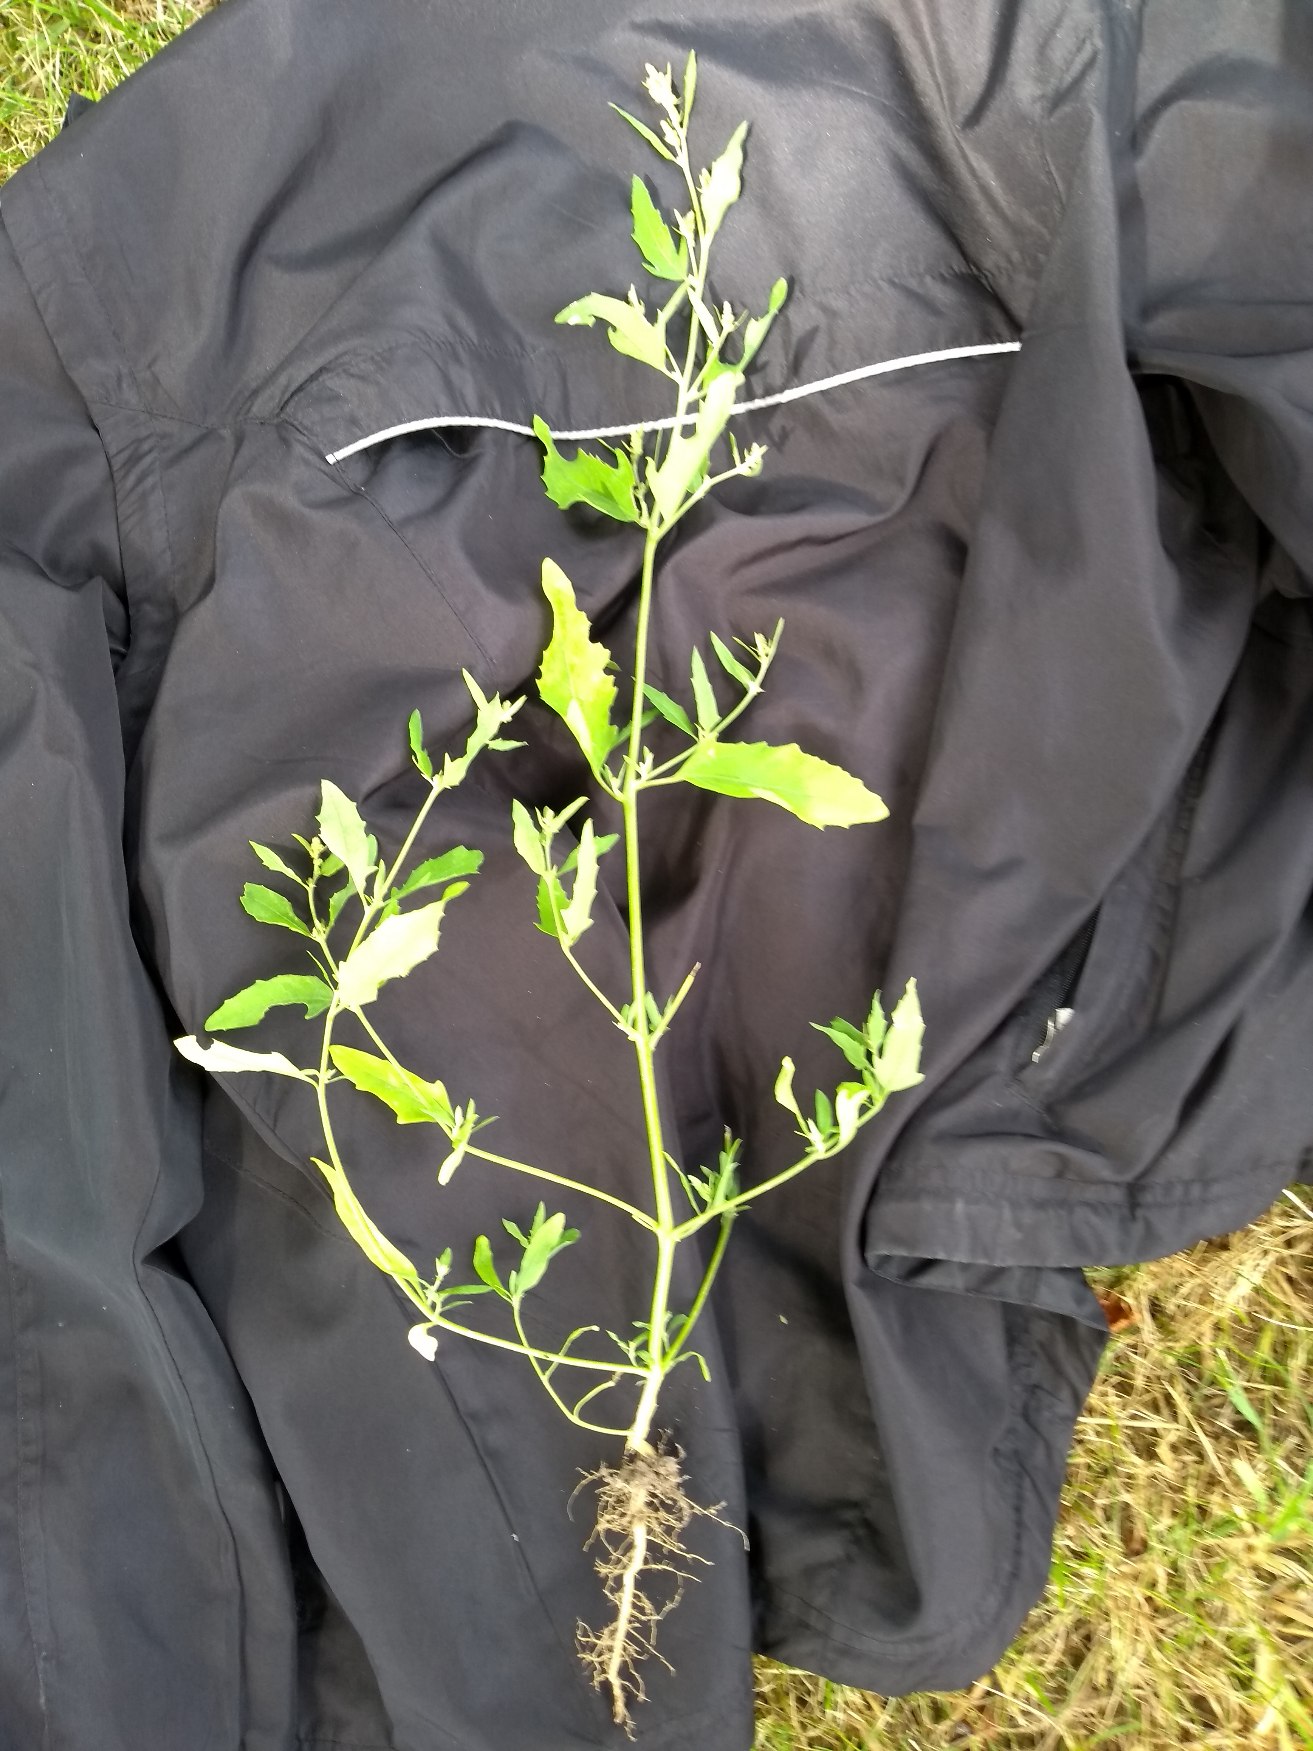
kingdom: Plantae
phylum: Tracheophyta
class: Magnoliopsida
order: Caryophyllales
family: Amaranthaceae
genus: Atriplex
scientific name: Atriplex patula
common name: Svine-mælde
